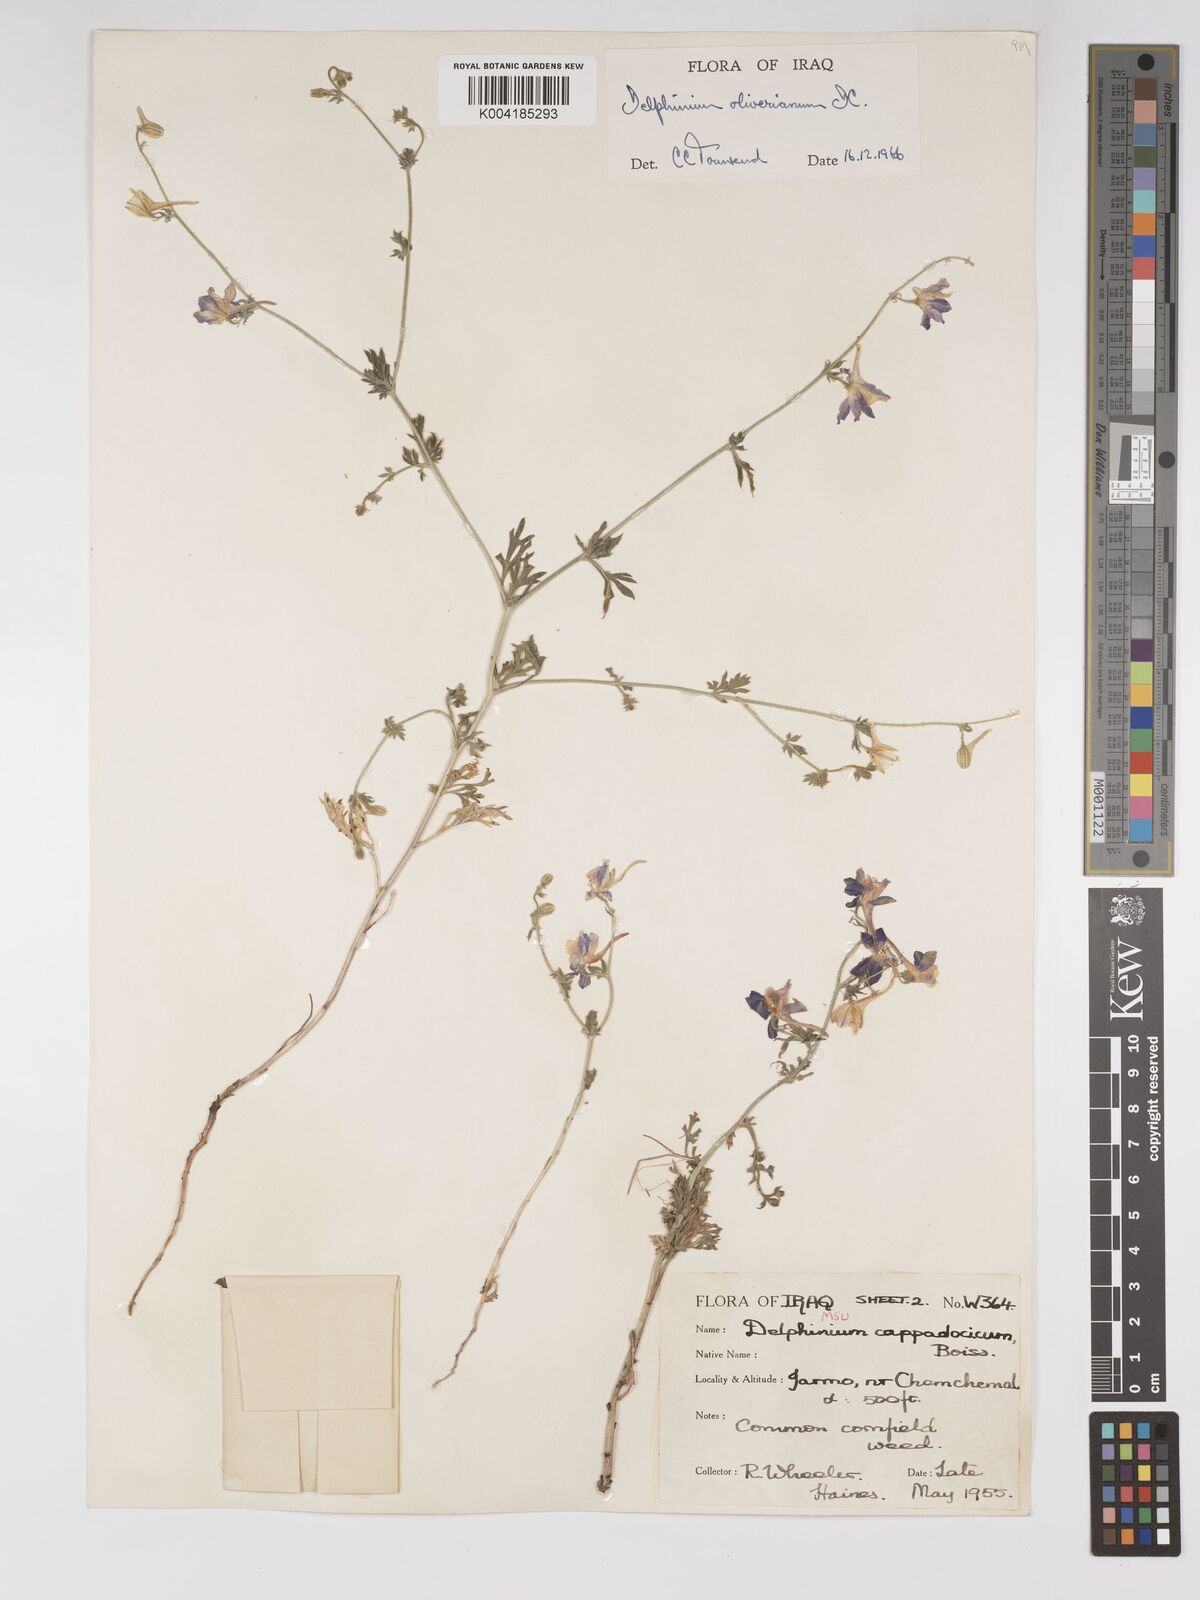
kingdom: Plantae
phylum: Tracheophyta
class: Magnoliopsida
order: Ranunculales
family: Ranunculaceae
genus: Delphinium
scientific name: Delphinium oliverianum
